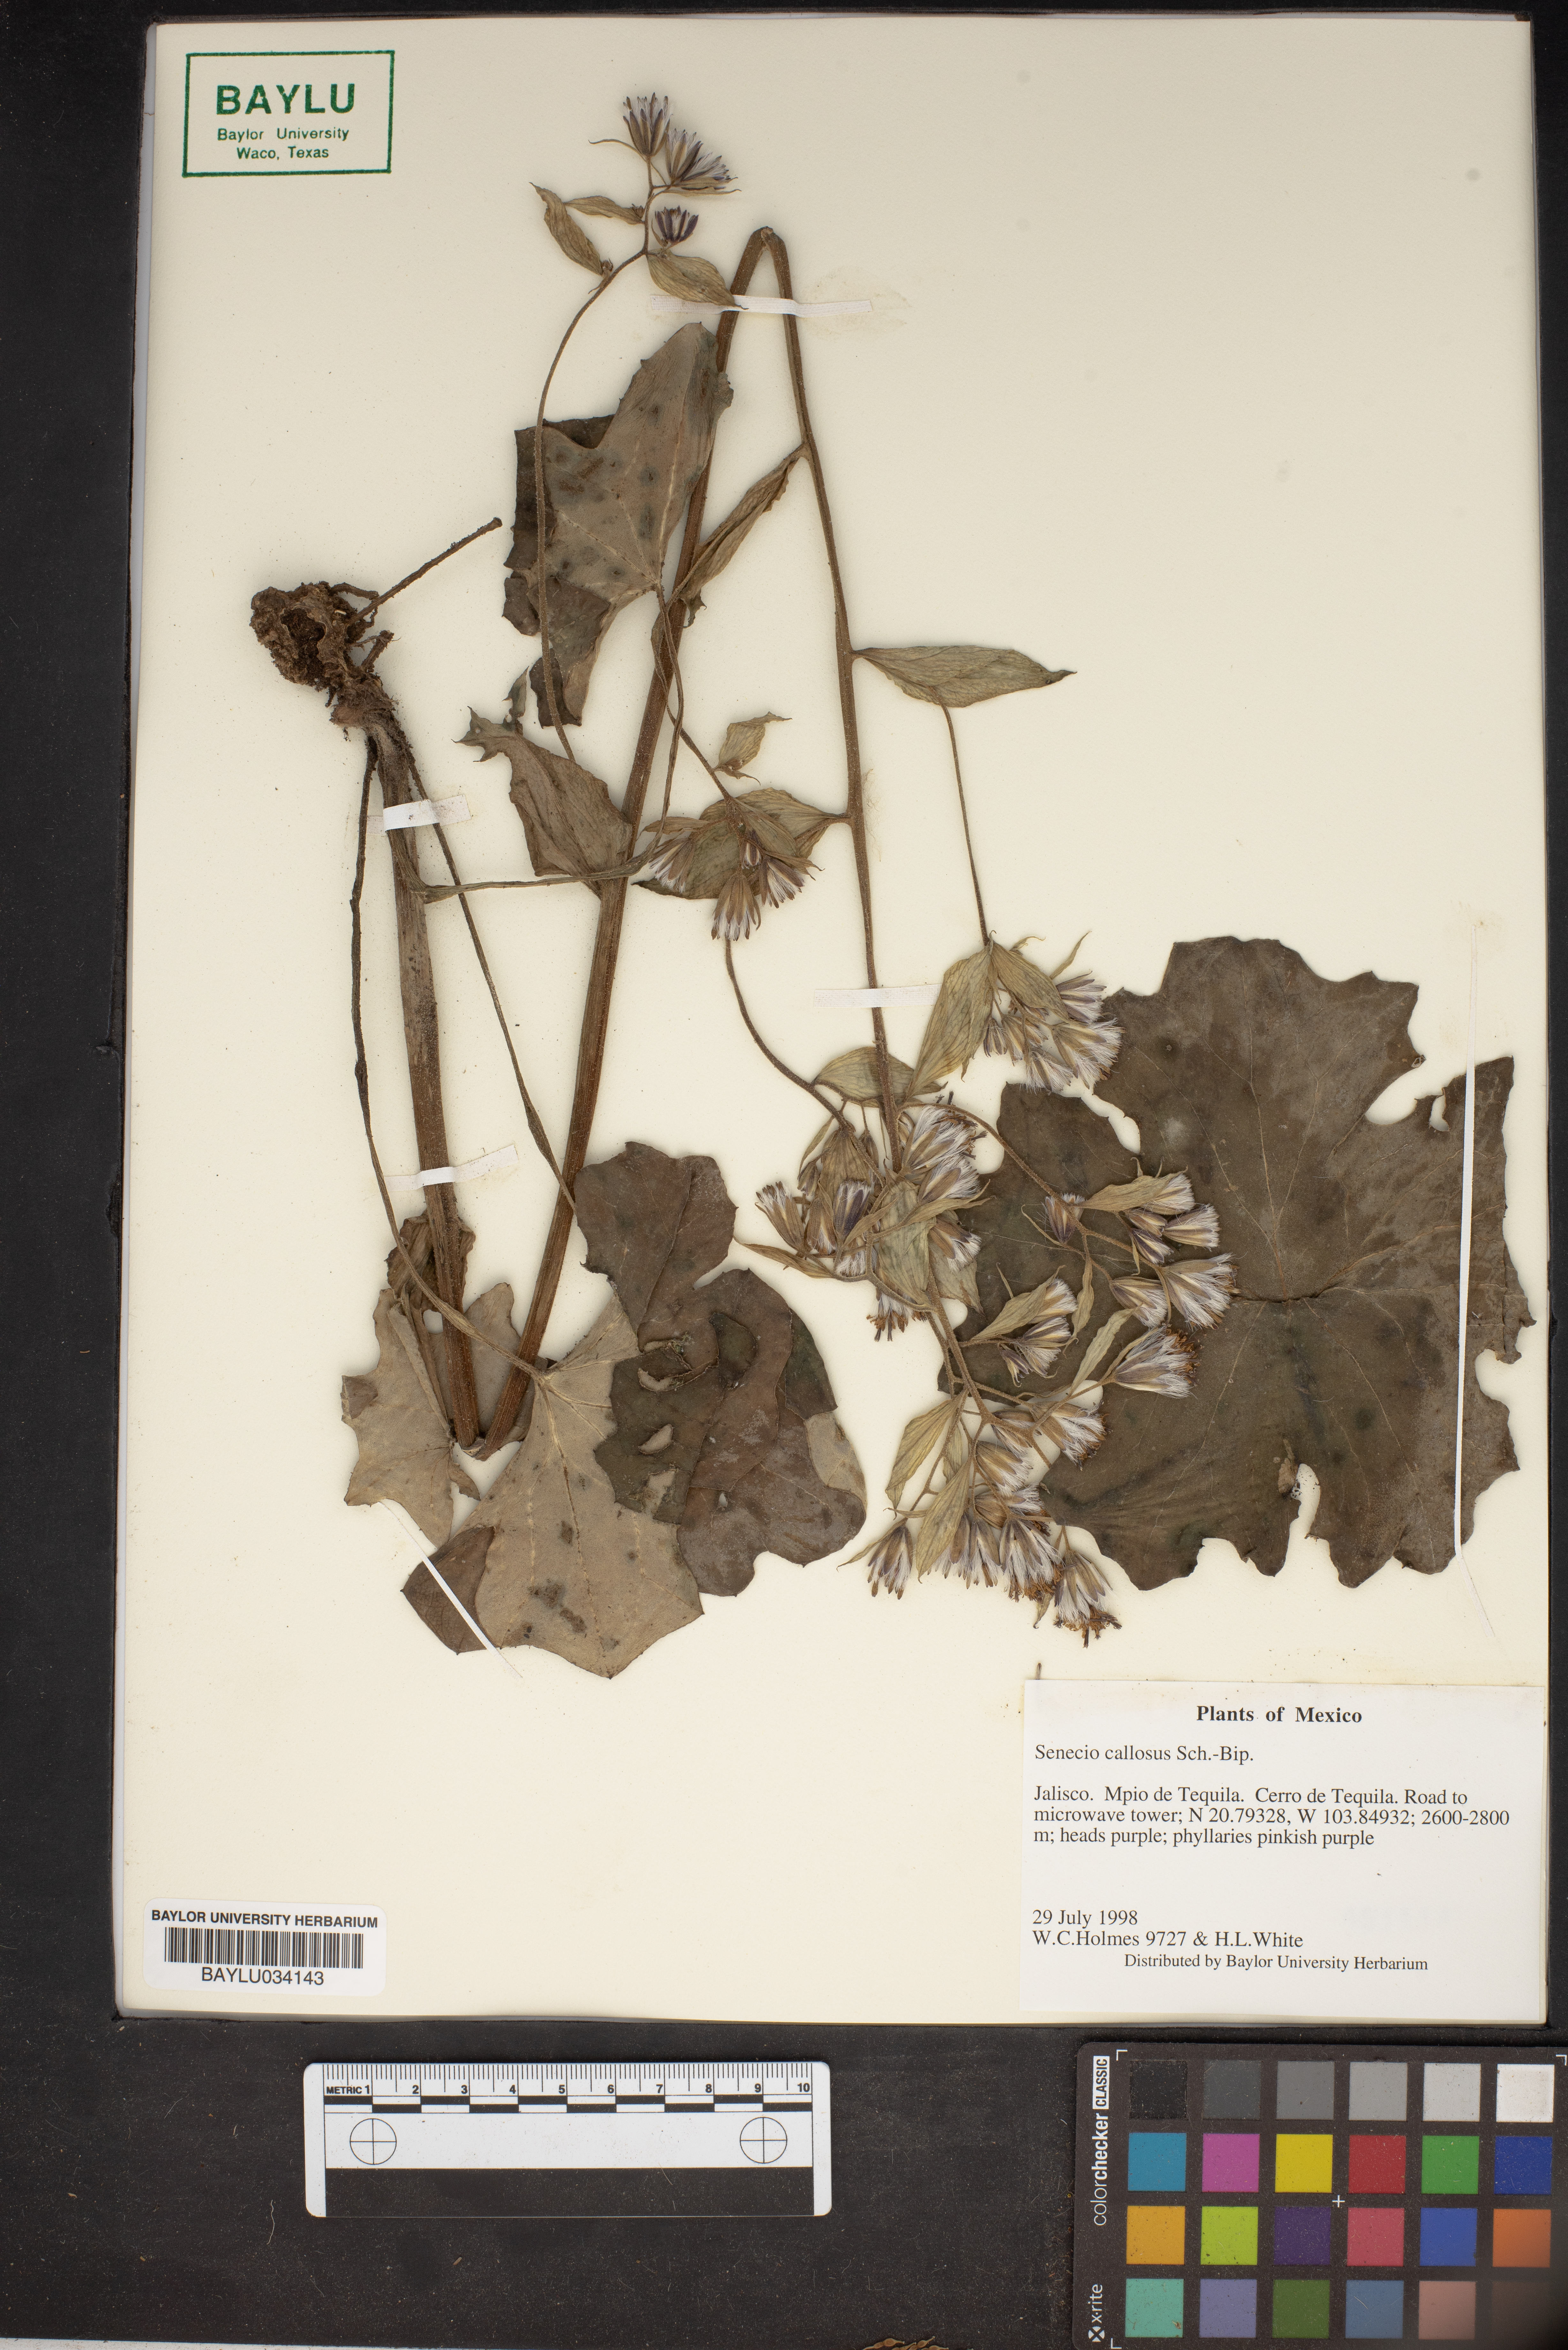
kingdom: Plantae
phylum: Tracheophyta
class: Magnoliopsida
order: Asterales
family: Asteraceae
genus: Senecio
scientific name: Senecio callosus
